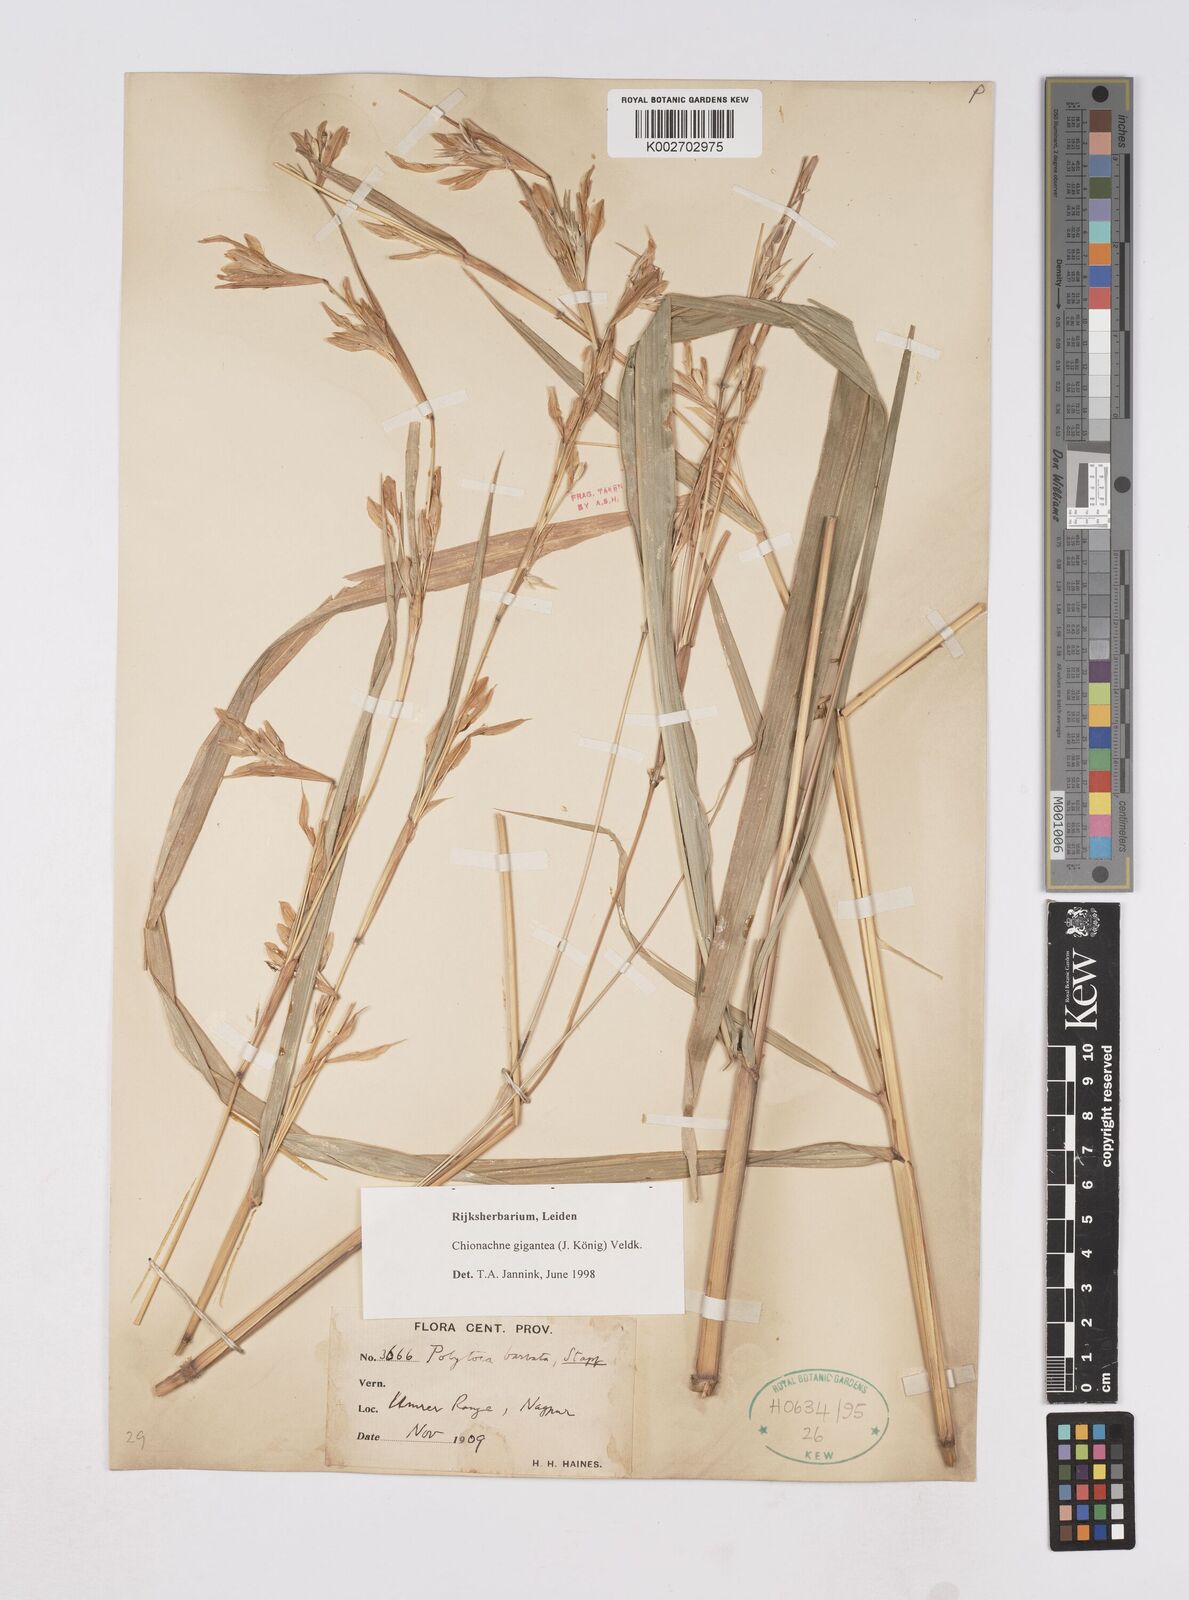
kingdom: Plantae
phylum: Tracheophyta
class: Liliopsida
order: Poales
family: Poaceae
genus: Polytoca
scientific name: Polytoca gigantea
